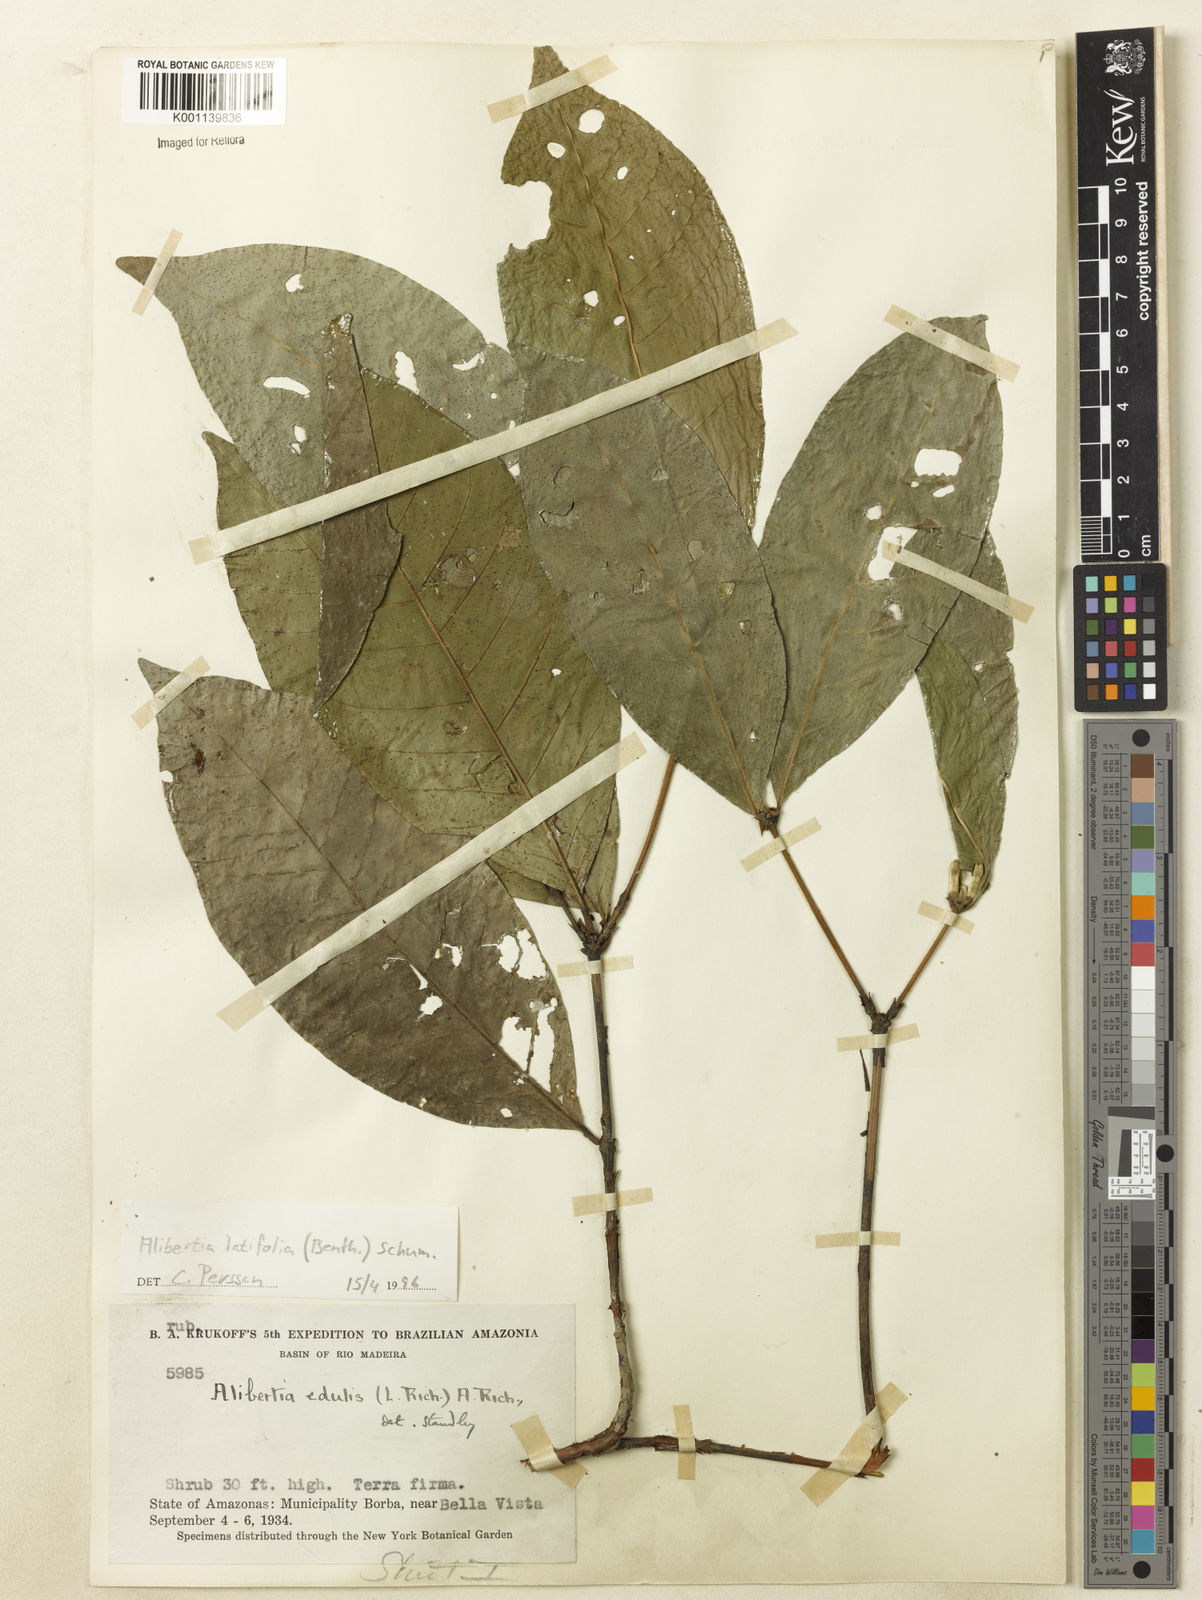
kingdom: Plantae
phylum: Tracheophyta
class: Magnoliopsida
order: Gentianales
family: Rubiaceae
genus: Alibertia
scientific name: Alibertia latifolia
